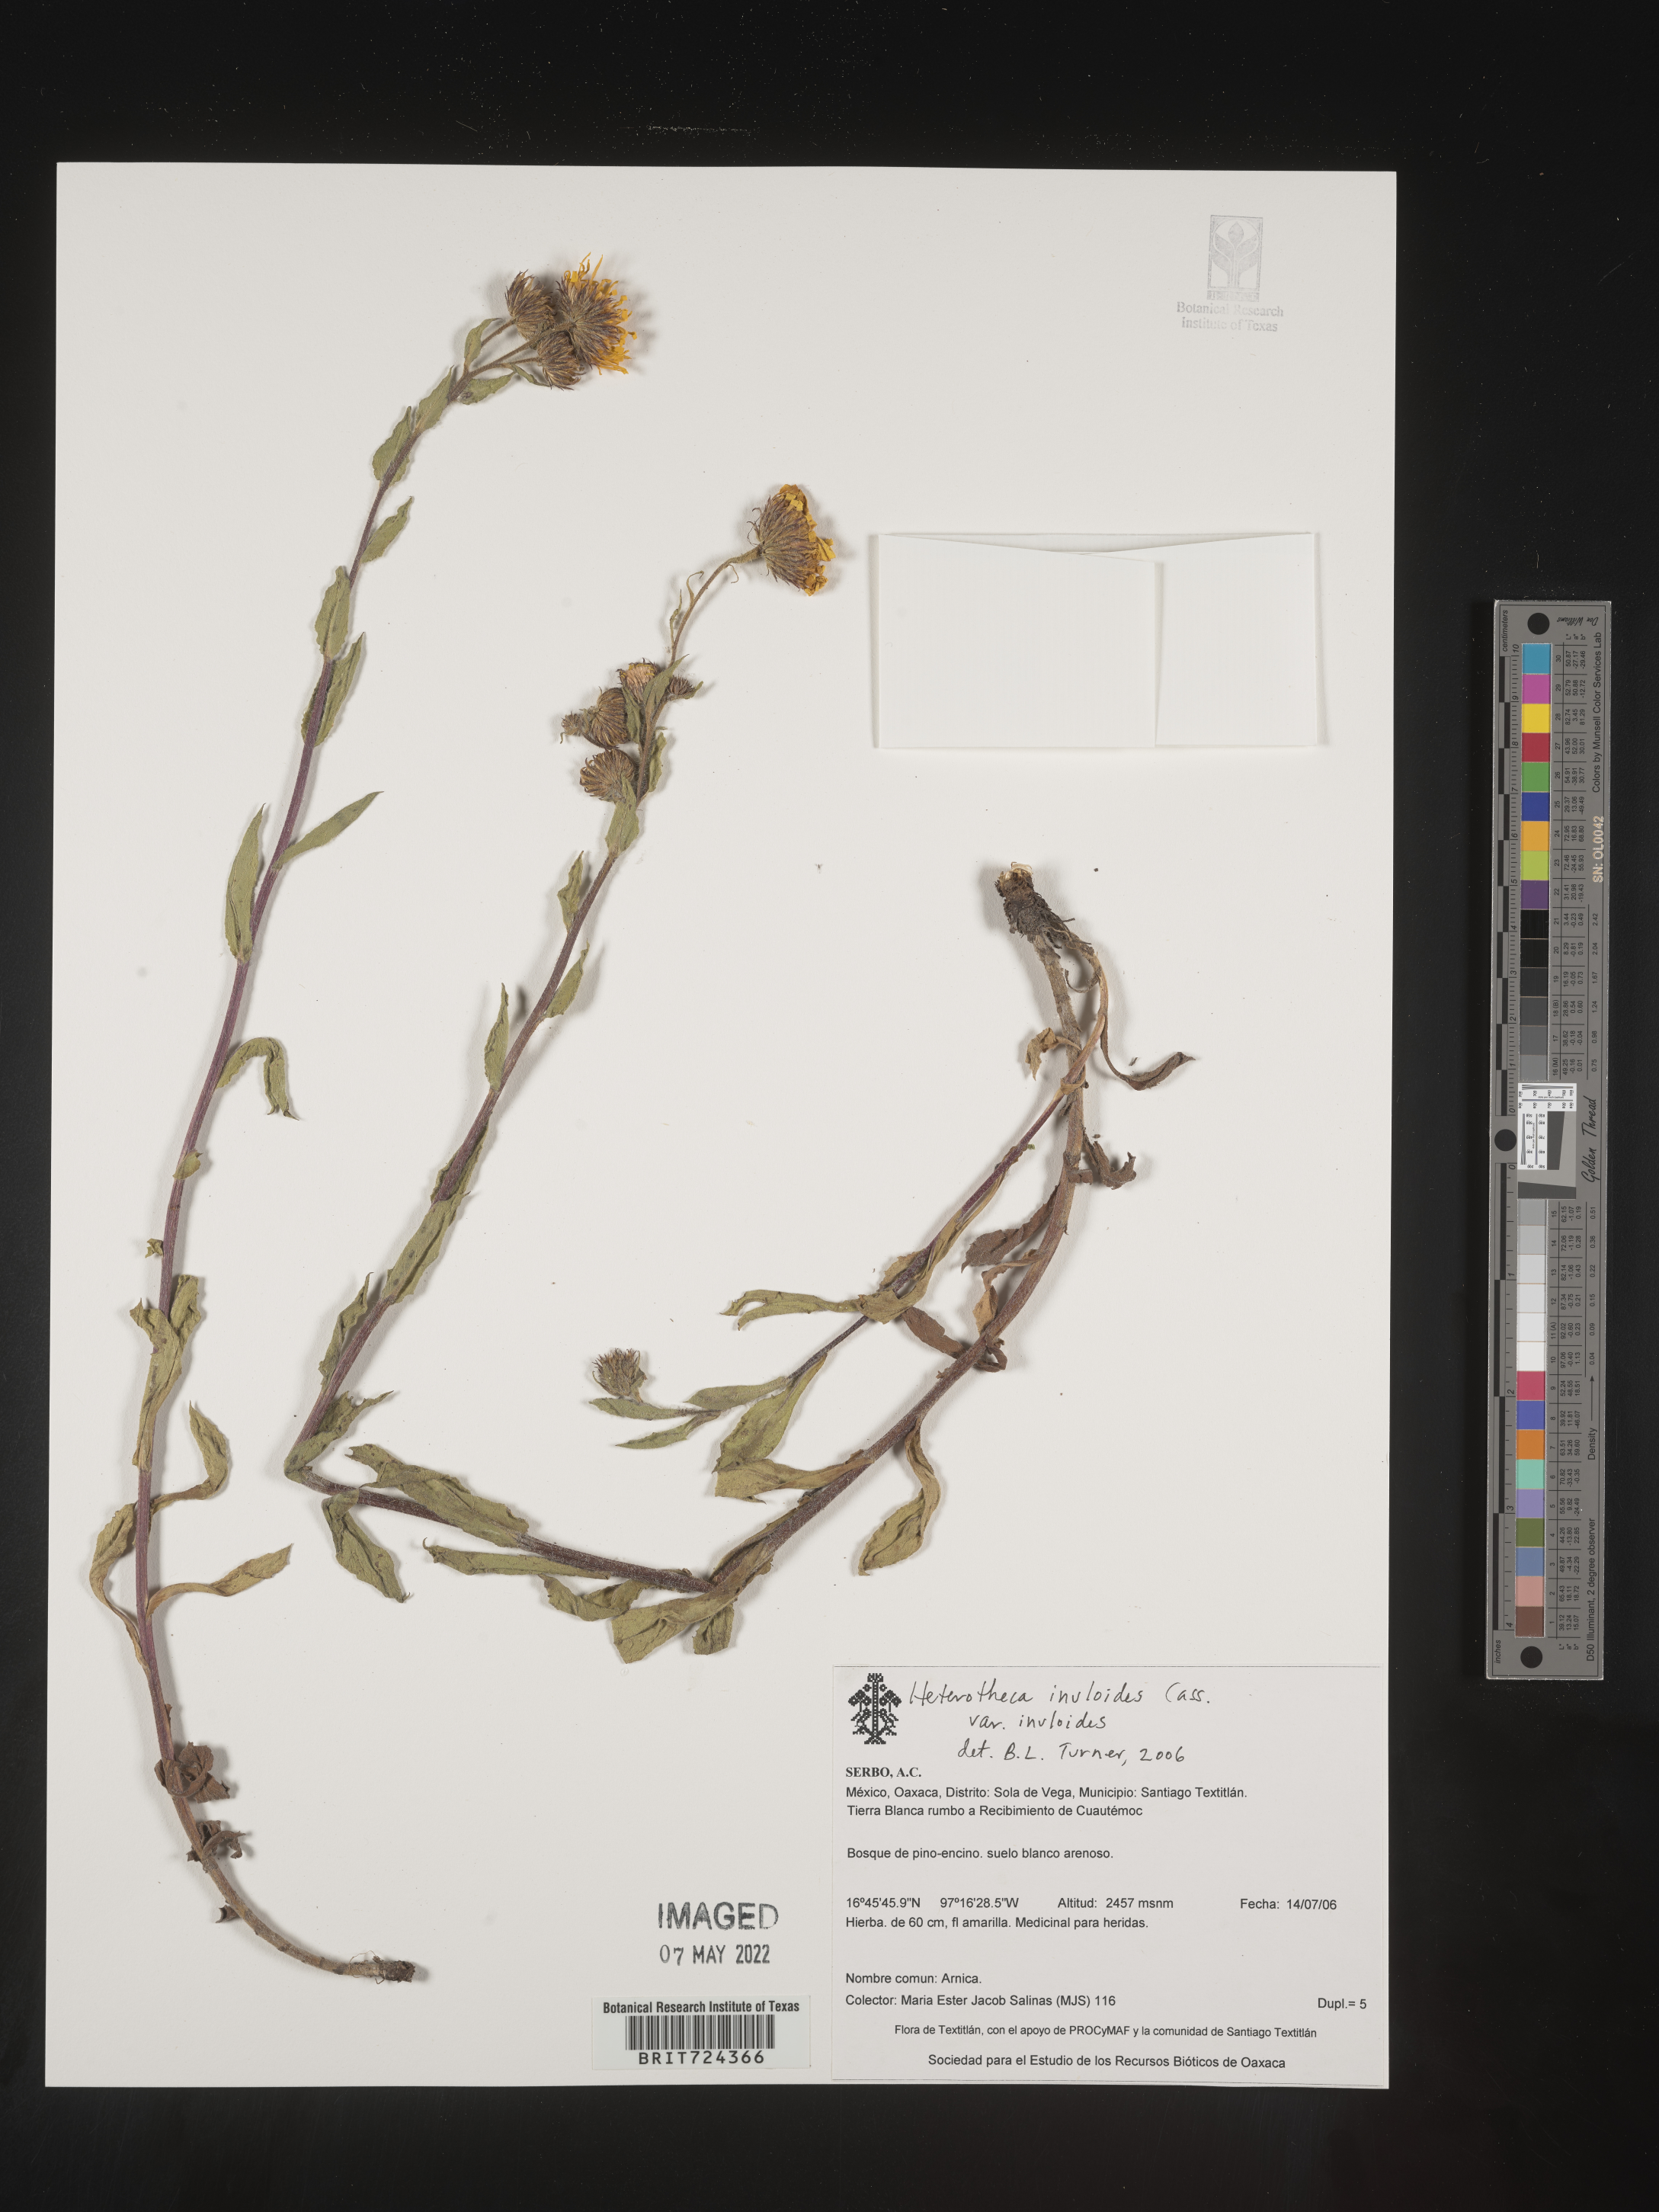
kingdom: Plantae
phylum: Tracheophyta
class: Magnoliopsida
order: Asterales
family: Asteraceae
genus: Heterotheca
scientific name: Heterotheca inuloides
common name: False arnica
